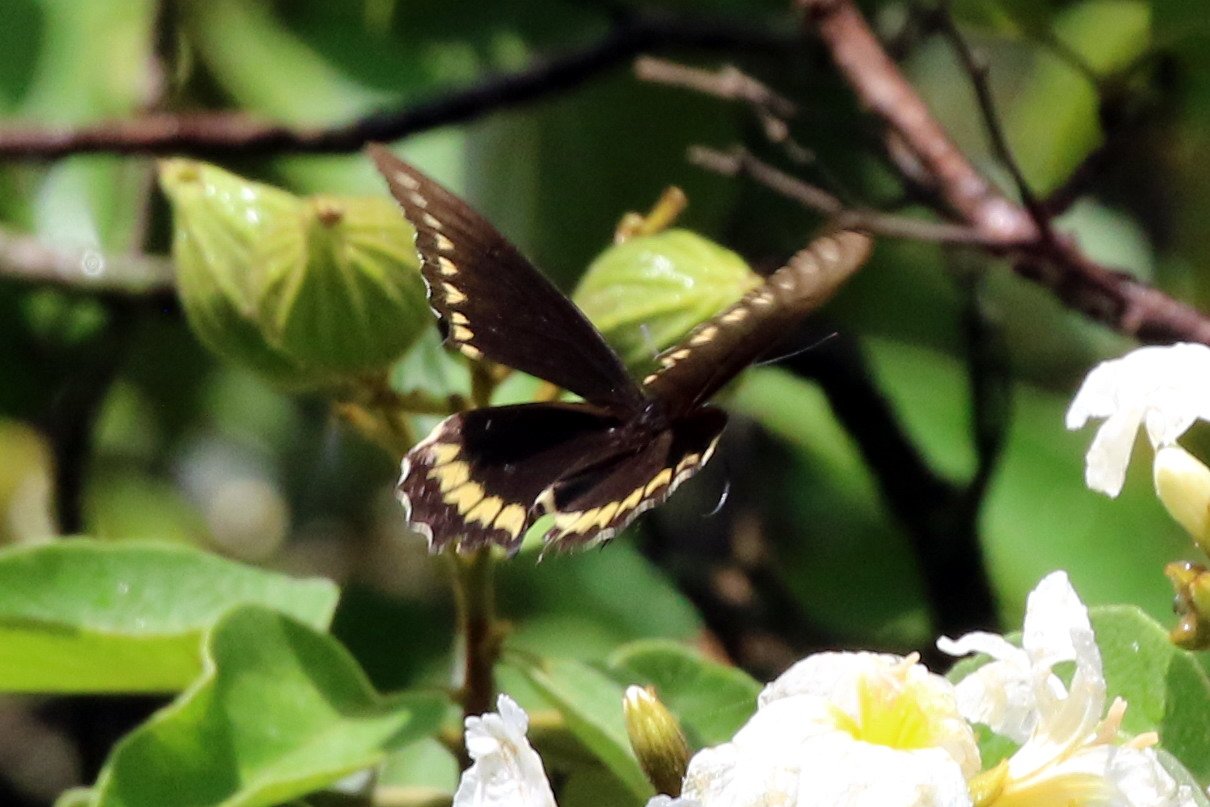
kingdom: Animalia
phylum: Arthropoda
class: Insecta
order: Lepidoptera
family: Papilionidae
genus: Battus
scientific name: Battus polydamas
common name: Polydamas Swallowtail
